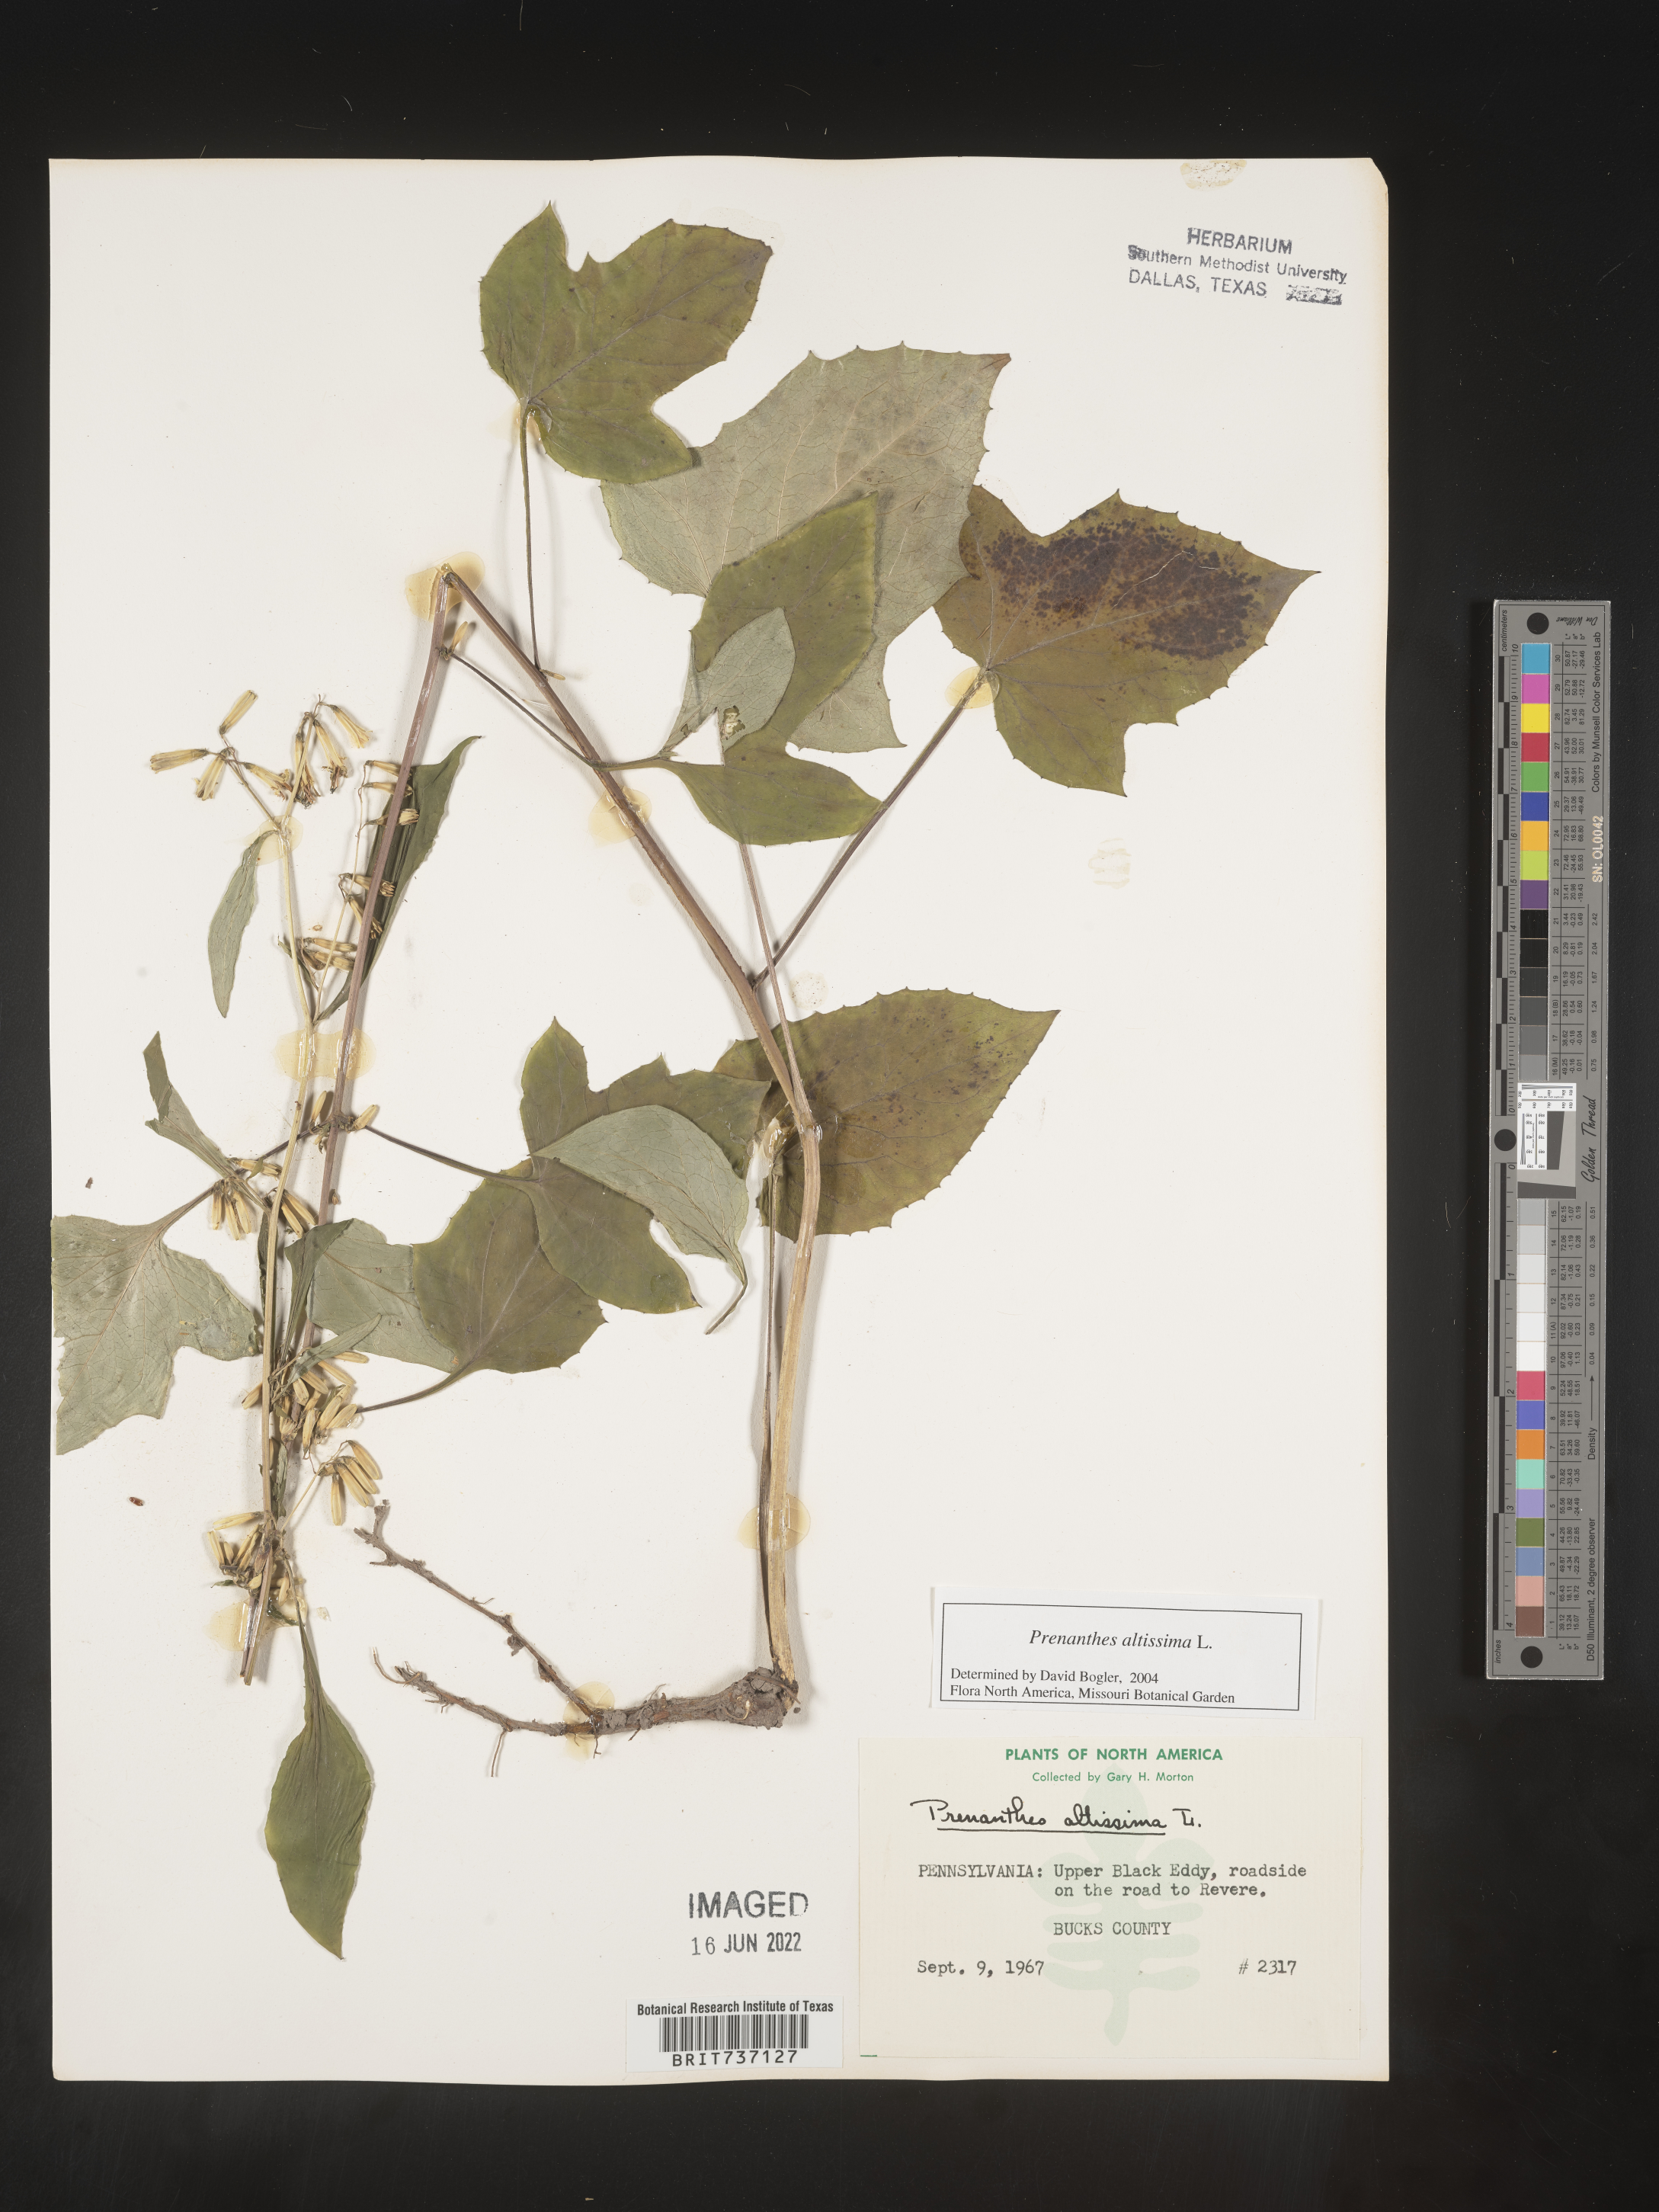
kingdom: Plantae
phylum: Tracheophyta
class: Magnoliopsida
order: Asterales
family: Asteraceae
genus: Lactuca
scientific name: Lactuca quercina
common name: Wild lettuce
